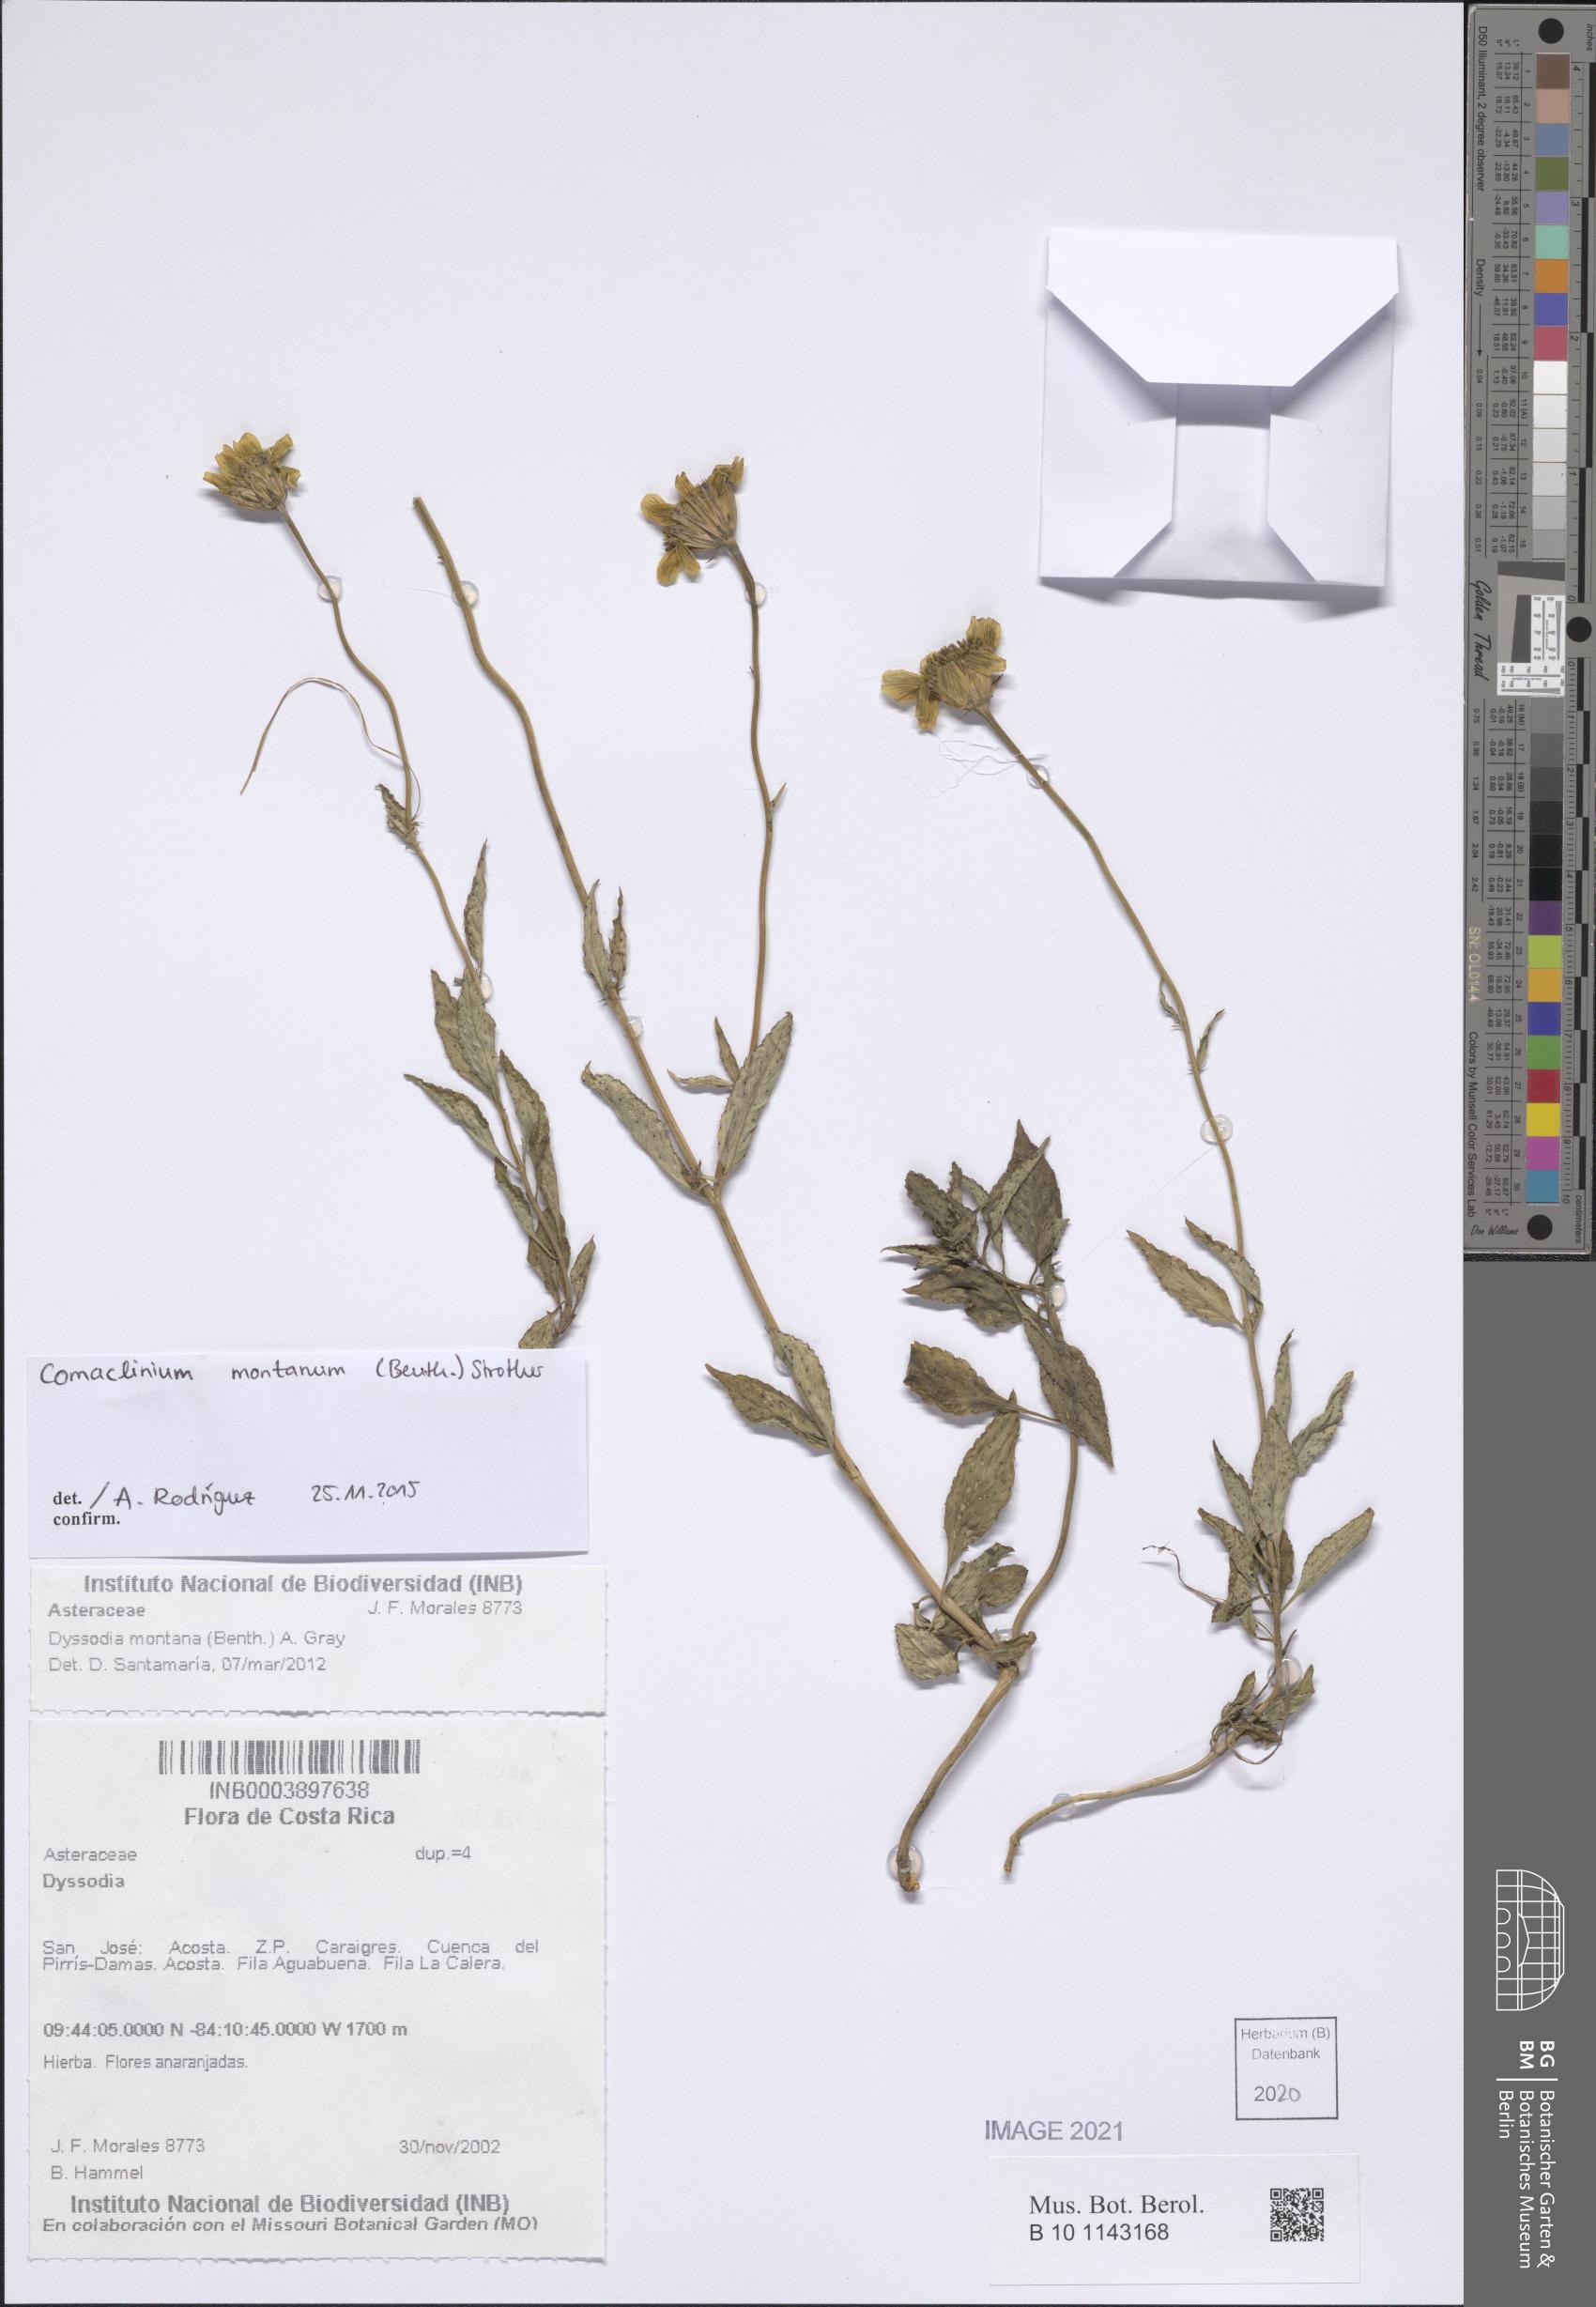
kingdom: Plantae
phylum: Tracheophyta
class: Magnoliopsida
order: Asterales
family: Asteraceae
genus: Comaclinium
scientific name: Comaclinium montanum
